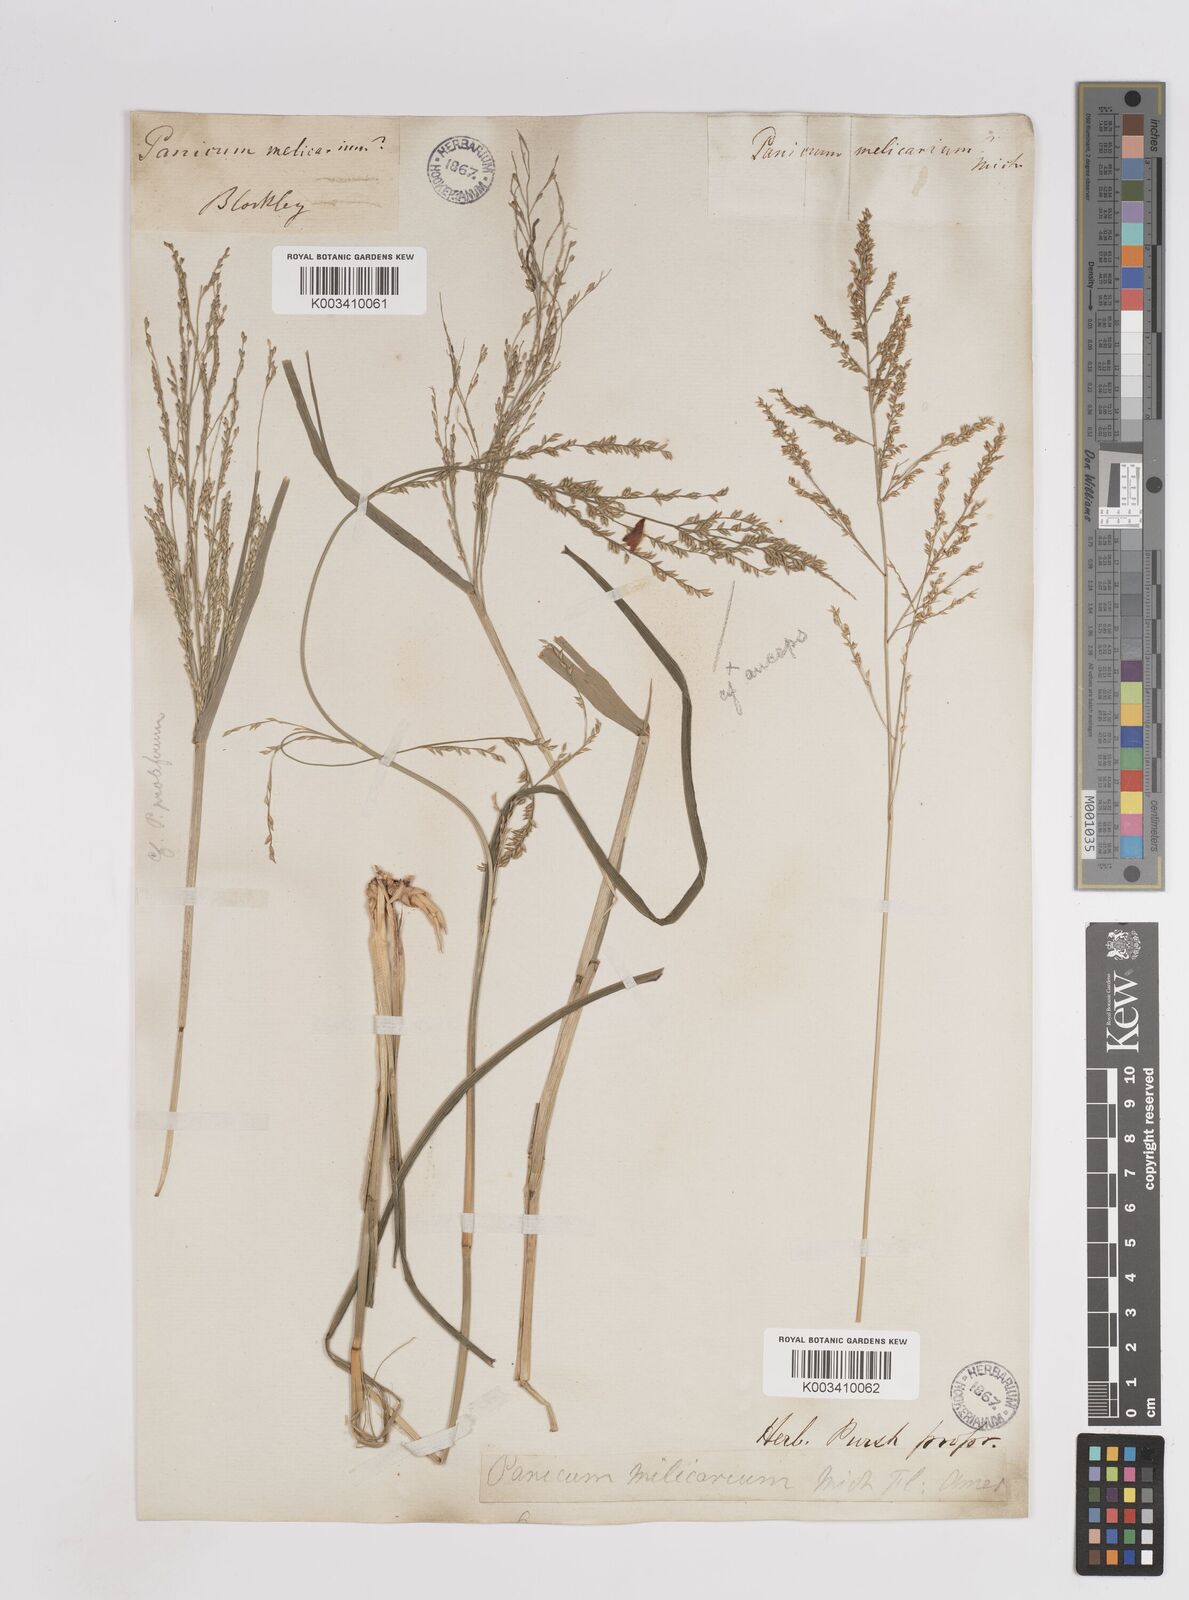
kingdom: Plantae
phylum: Tracheophyta
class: Liliopsida
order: Poales
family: Poaceae
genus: Coleataenia
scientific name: Coleataenia anceps
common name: Beaked panic grass
